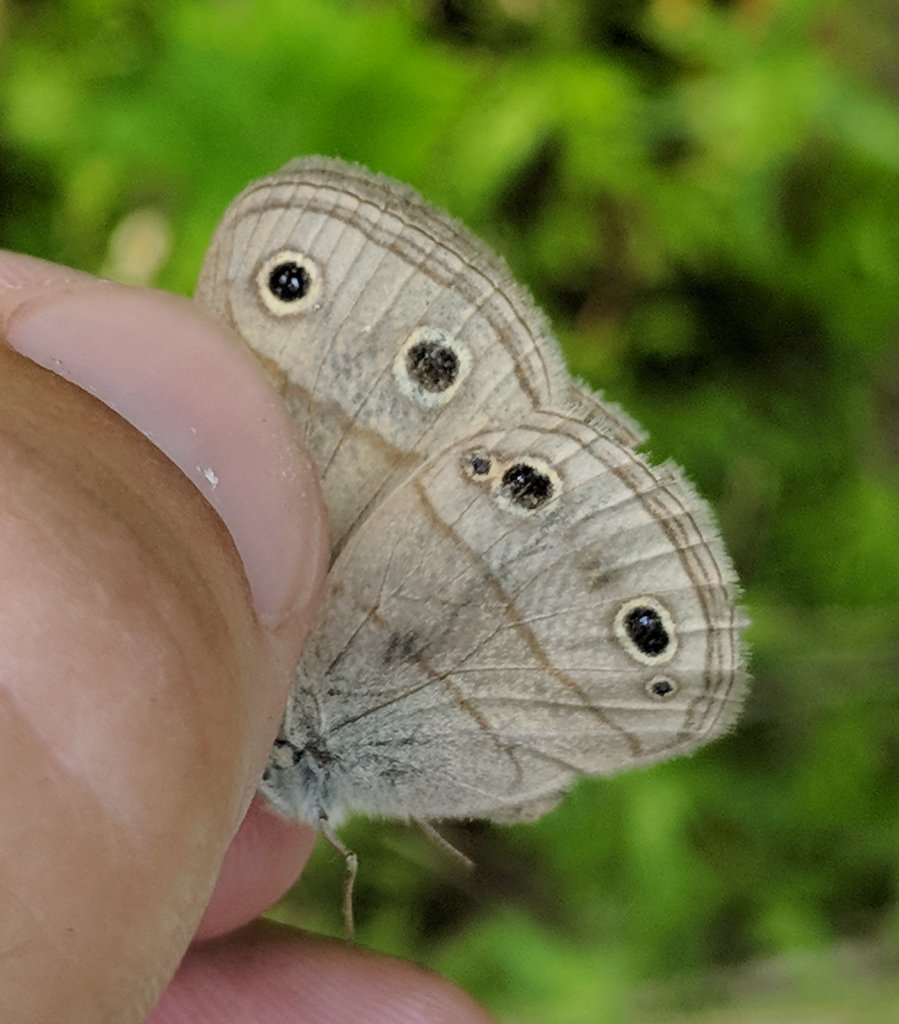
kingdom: Animalia
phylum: Arthropoda
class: Insecta
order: Lepidoptera
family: Nymphalidae
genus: Euptychia
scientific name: Euptychia cymela
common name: Little Wood Satyr
